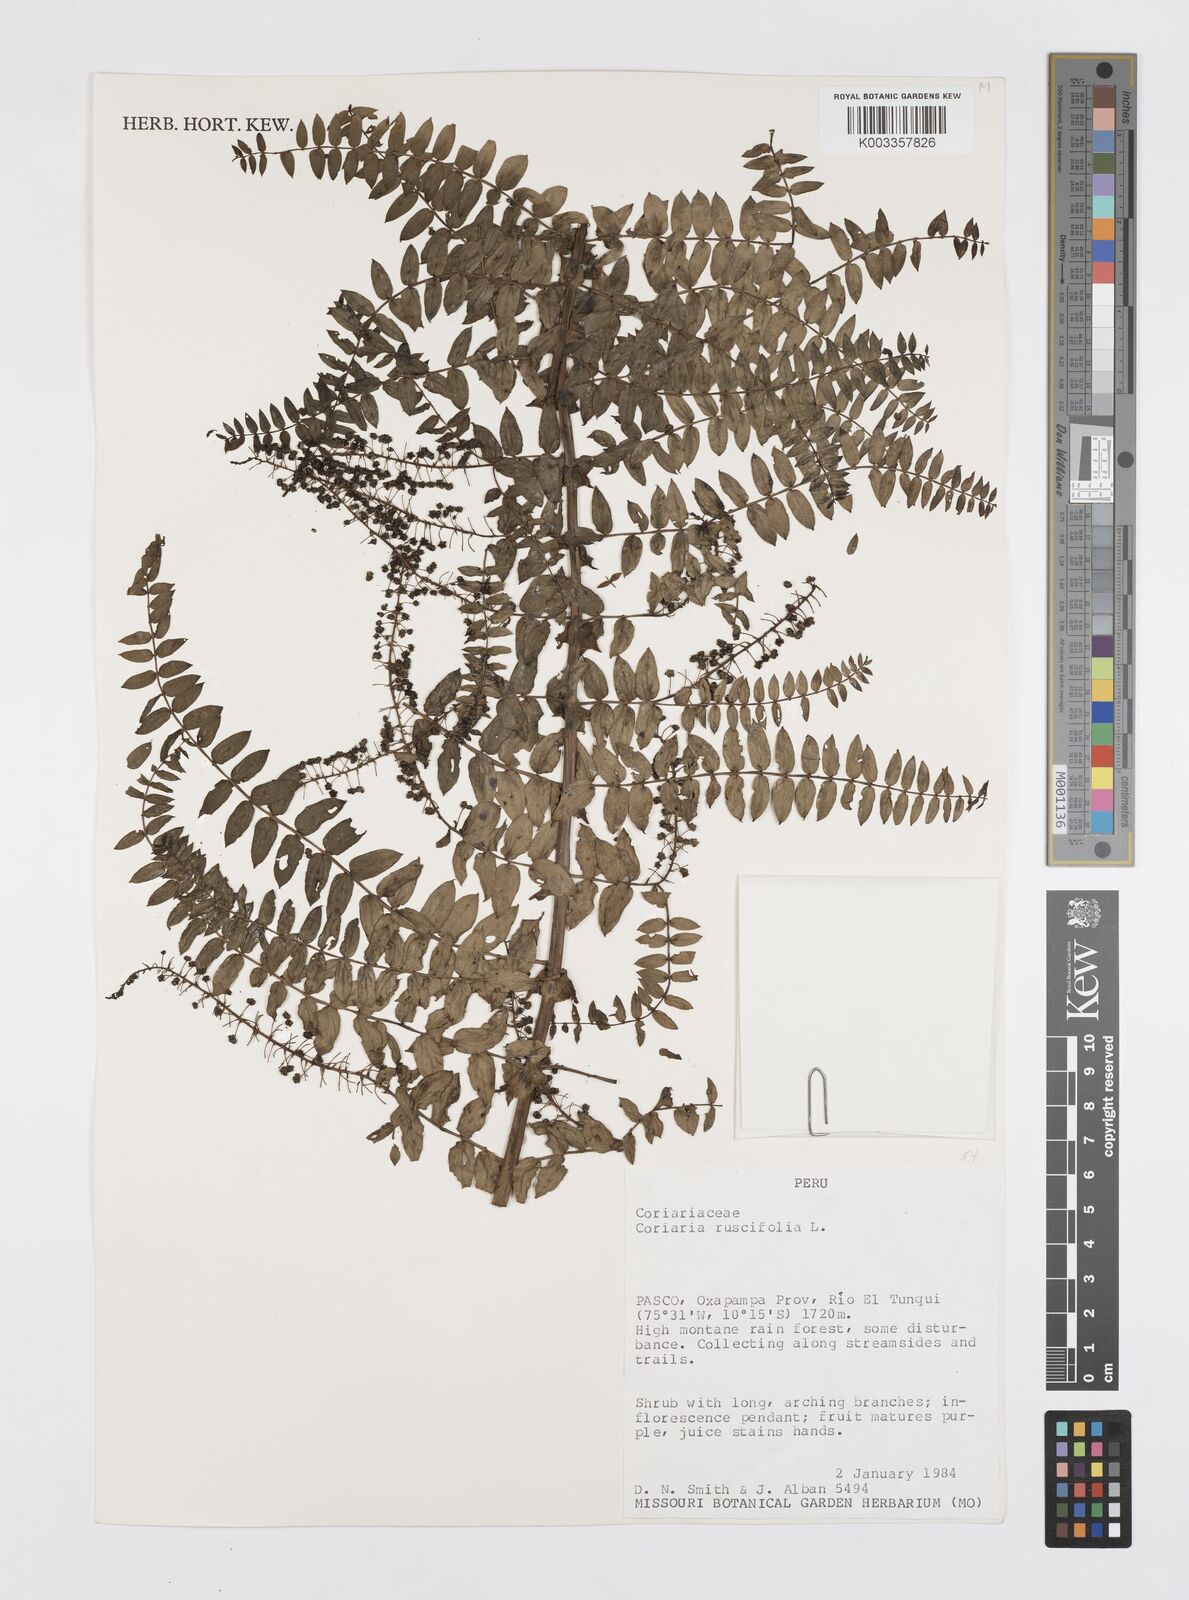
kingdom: Plantae
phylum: Tracheophyta
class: Magnoliopsida
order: Cucurbitales
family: Coriariaceae
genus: Coriaria
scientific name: Coriaria microphylla
